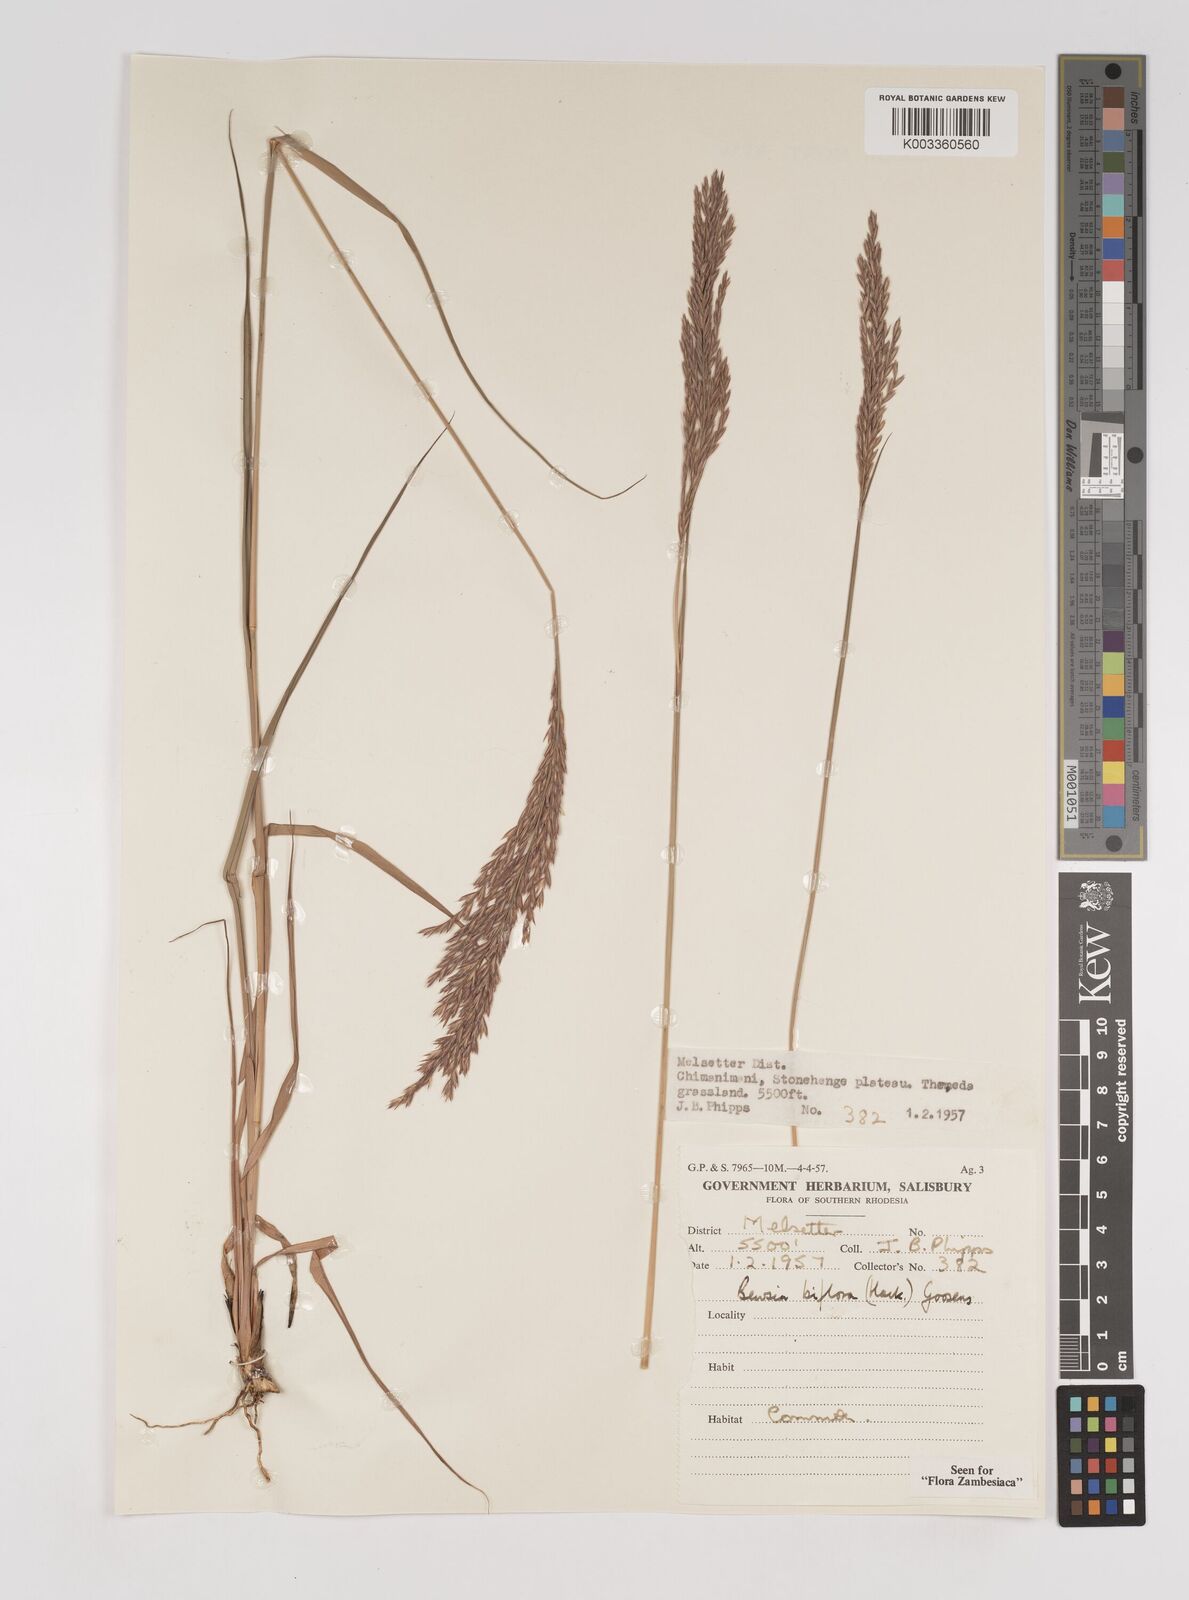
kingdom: Plantae
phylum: Tracheophyta
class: Liliopsida
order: Poales
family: Poaceae
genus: Bewsia
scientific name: Bewsia biflora
